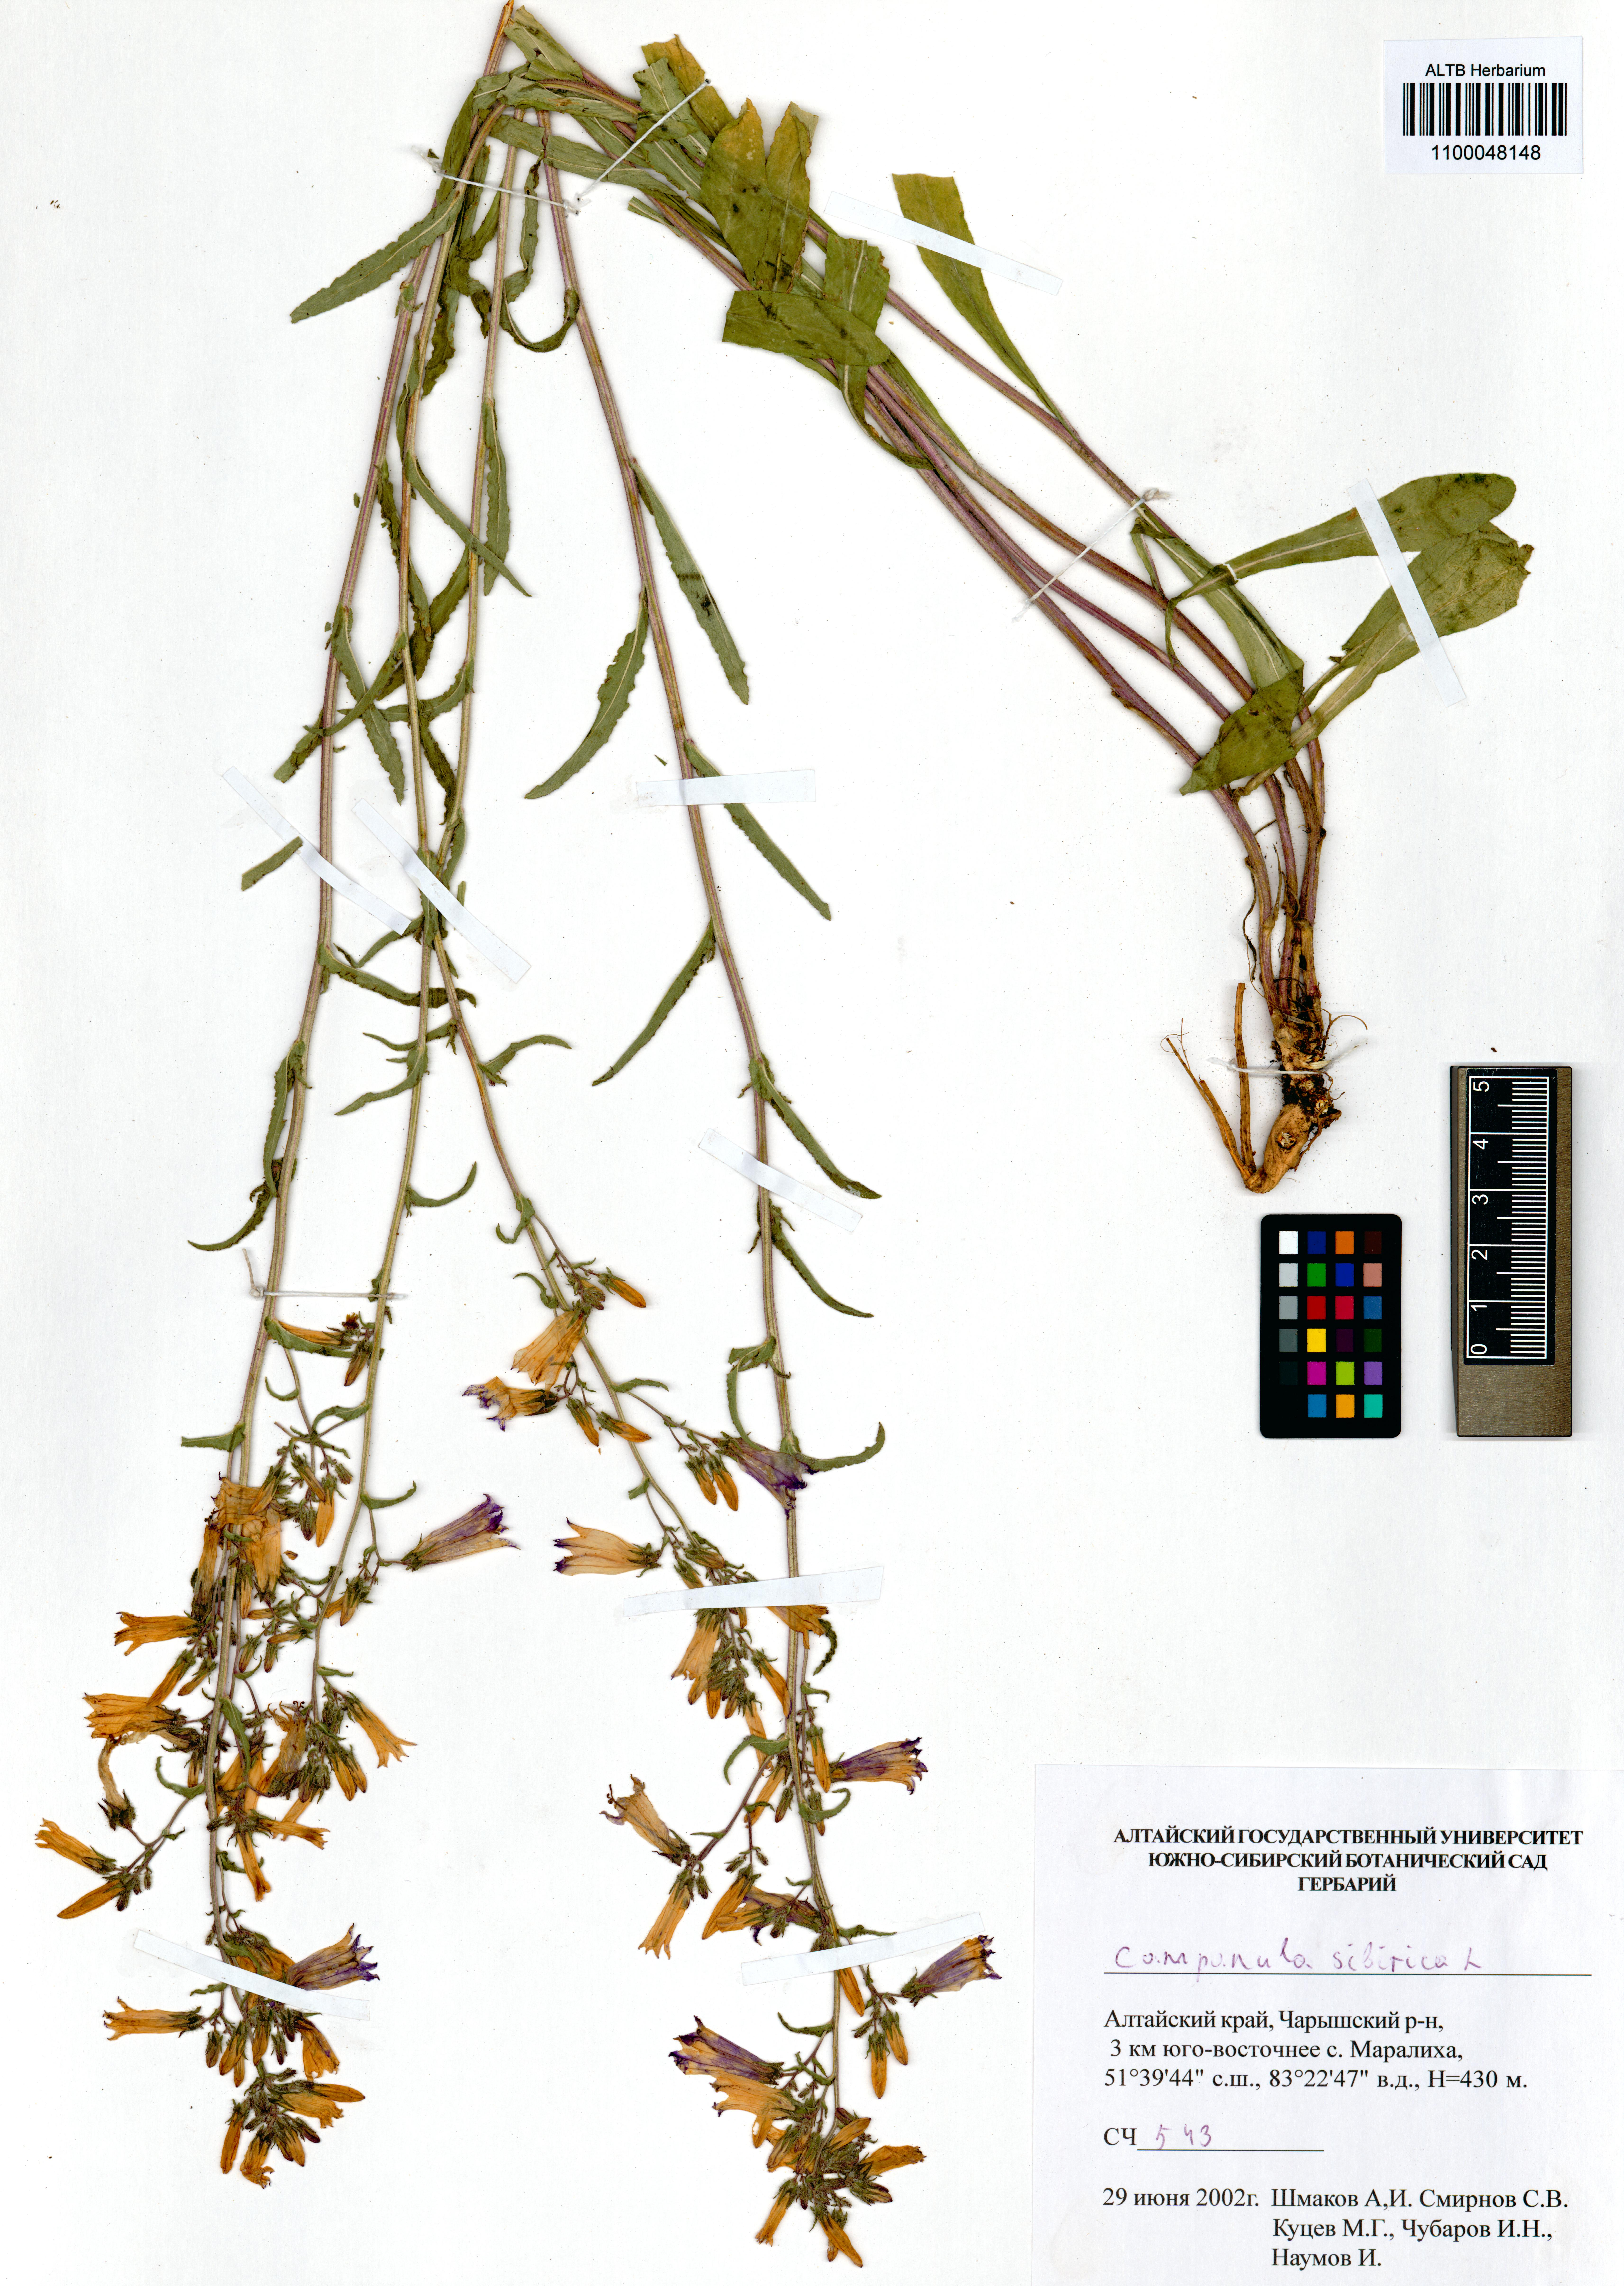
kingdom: Plantae
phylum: Tracheophyta
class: Magnoliopsida
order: Asterales
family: Campanulaceae
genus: Campanula
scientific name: Campanula sibirica
